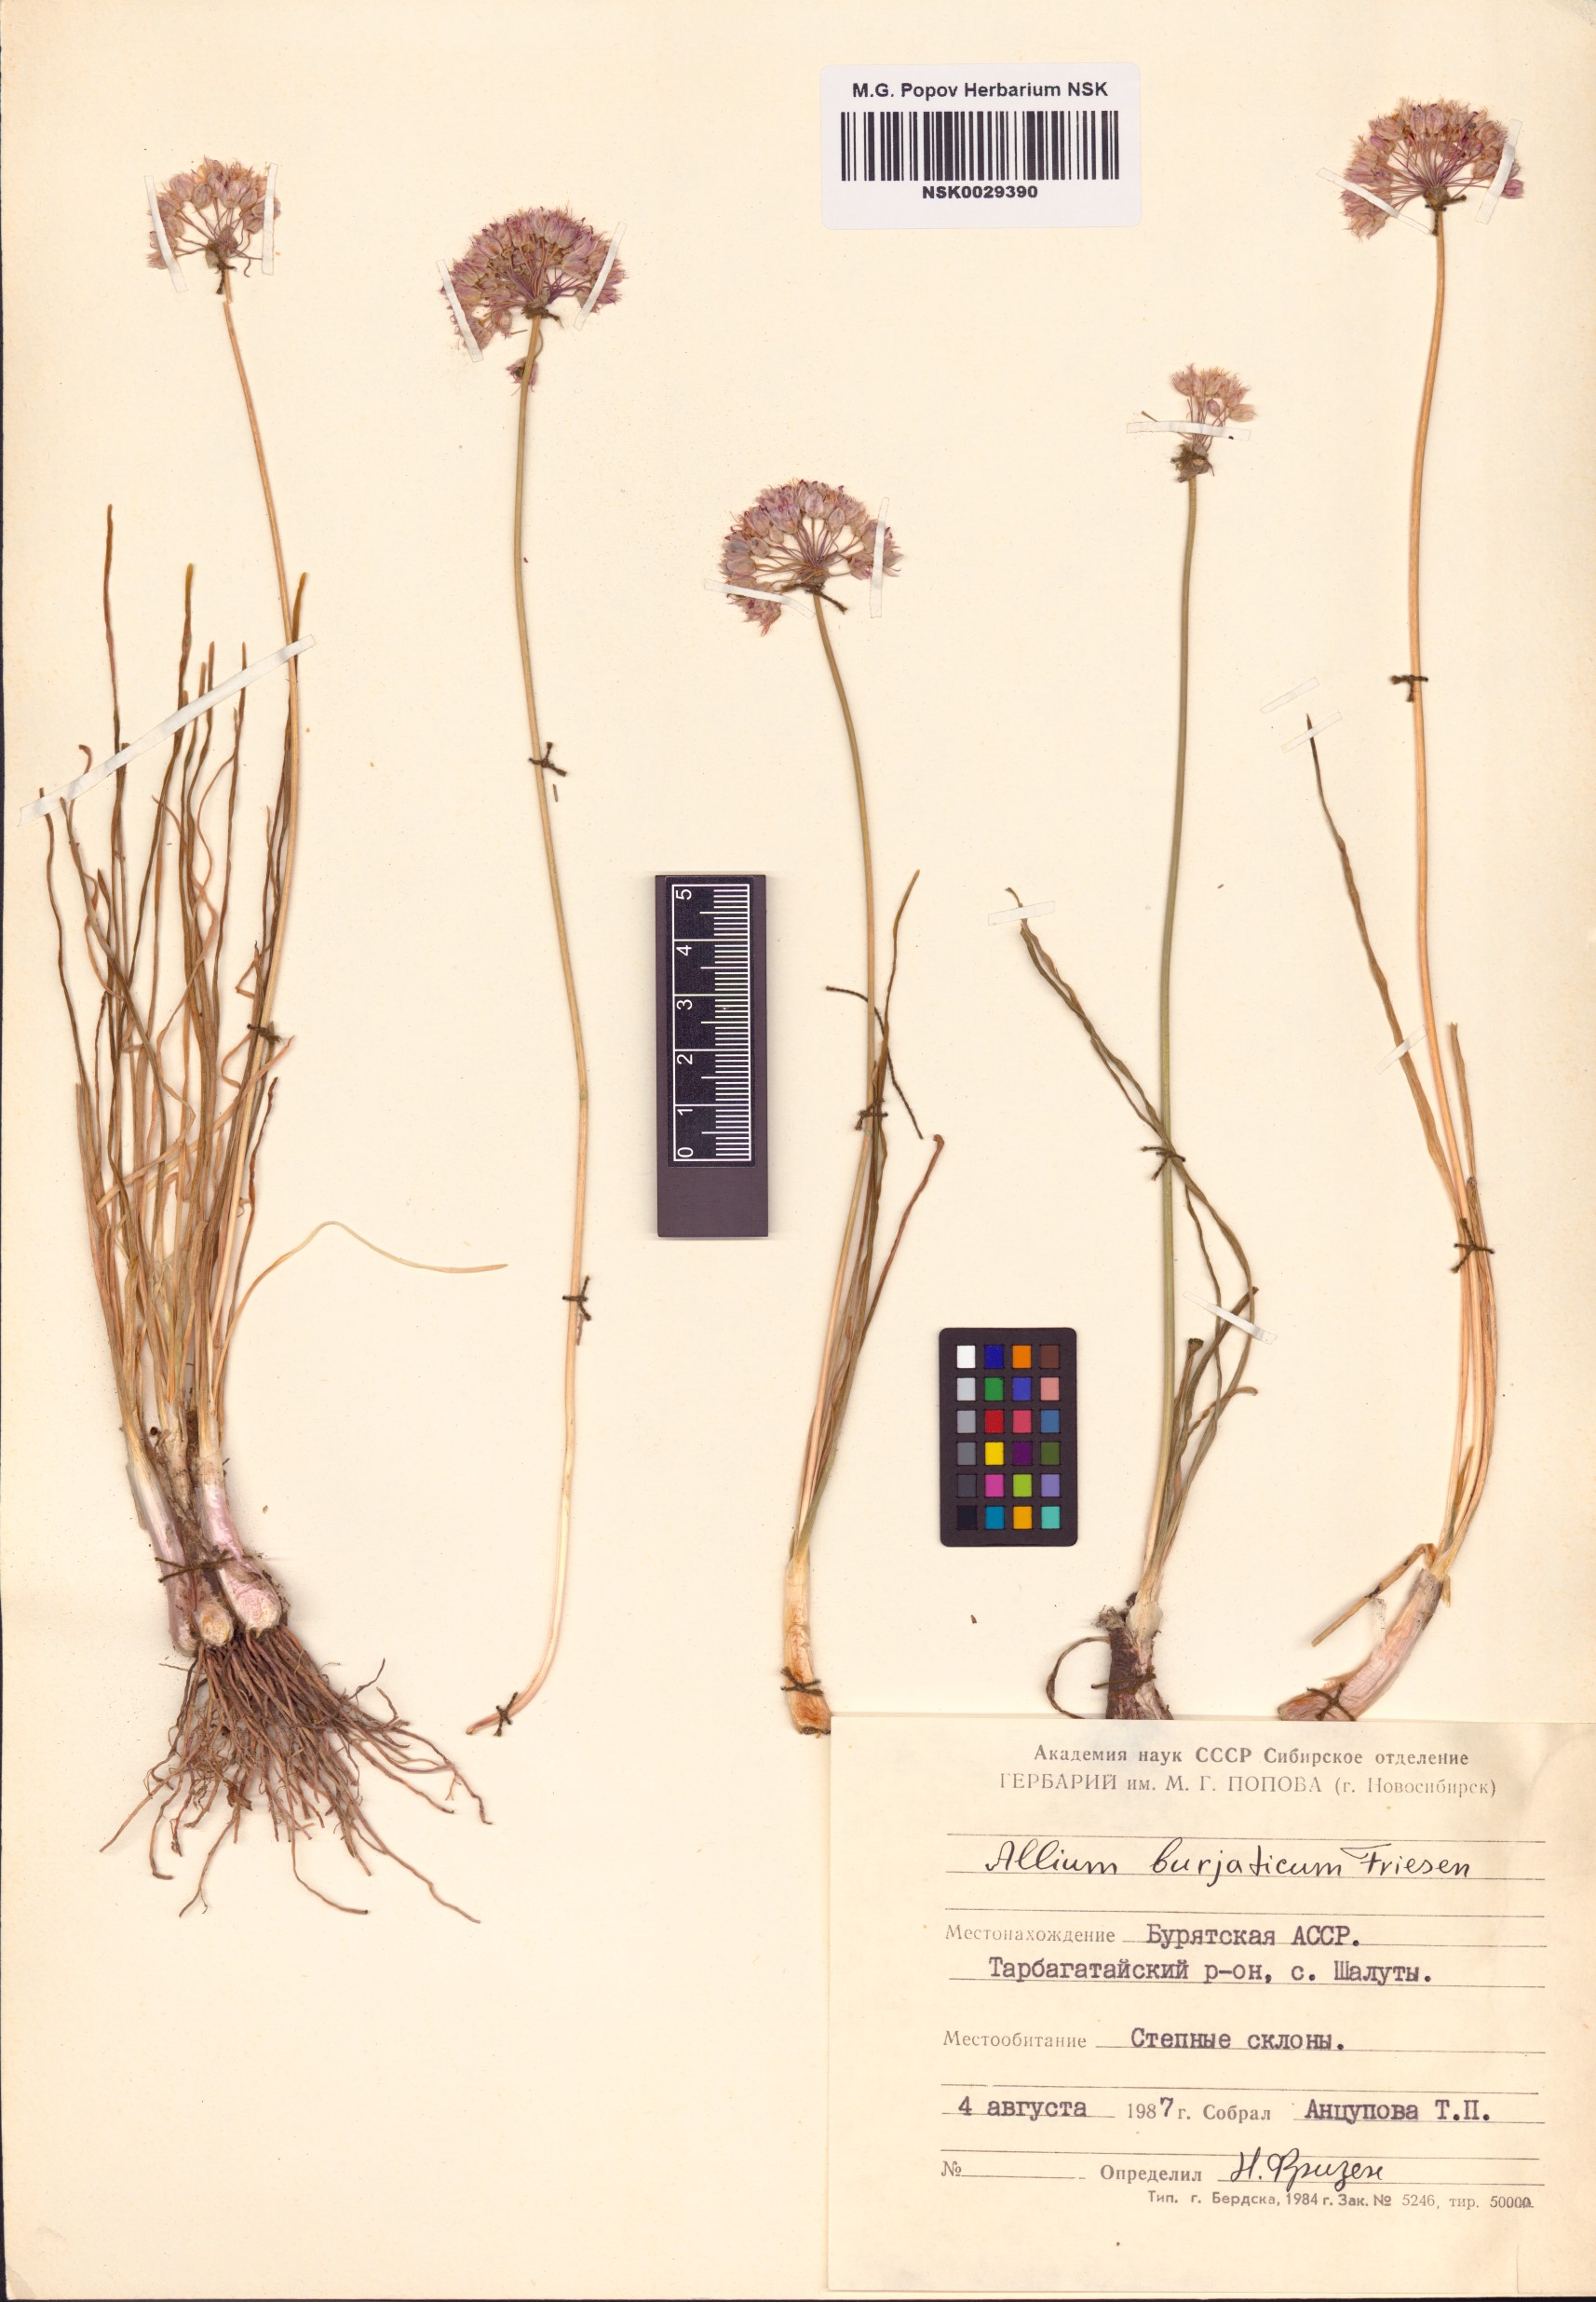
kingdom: Plantae
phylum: Tracheophyta
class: Liliopsida
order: Asparagales
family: Amaryllidaceae
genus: Allium
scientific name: Allium burjaticum
